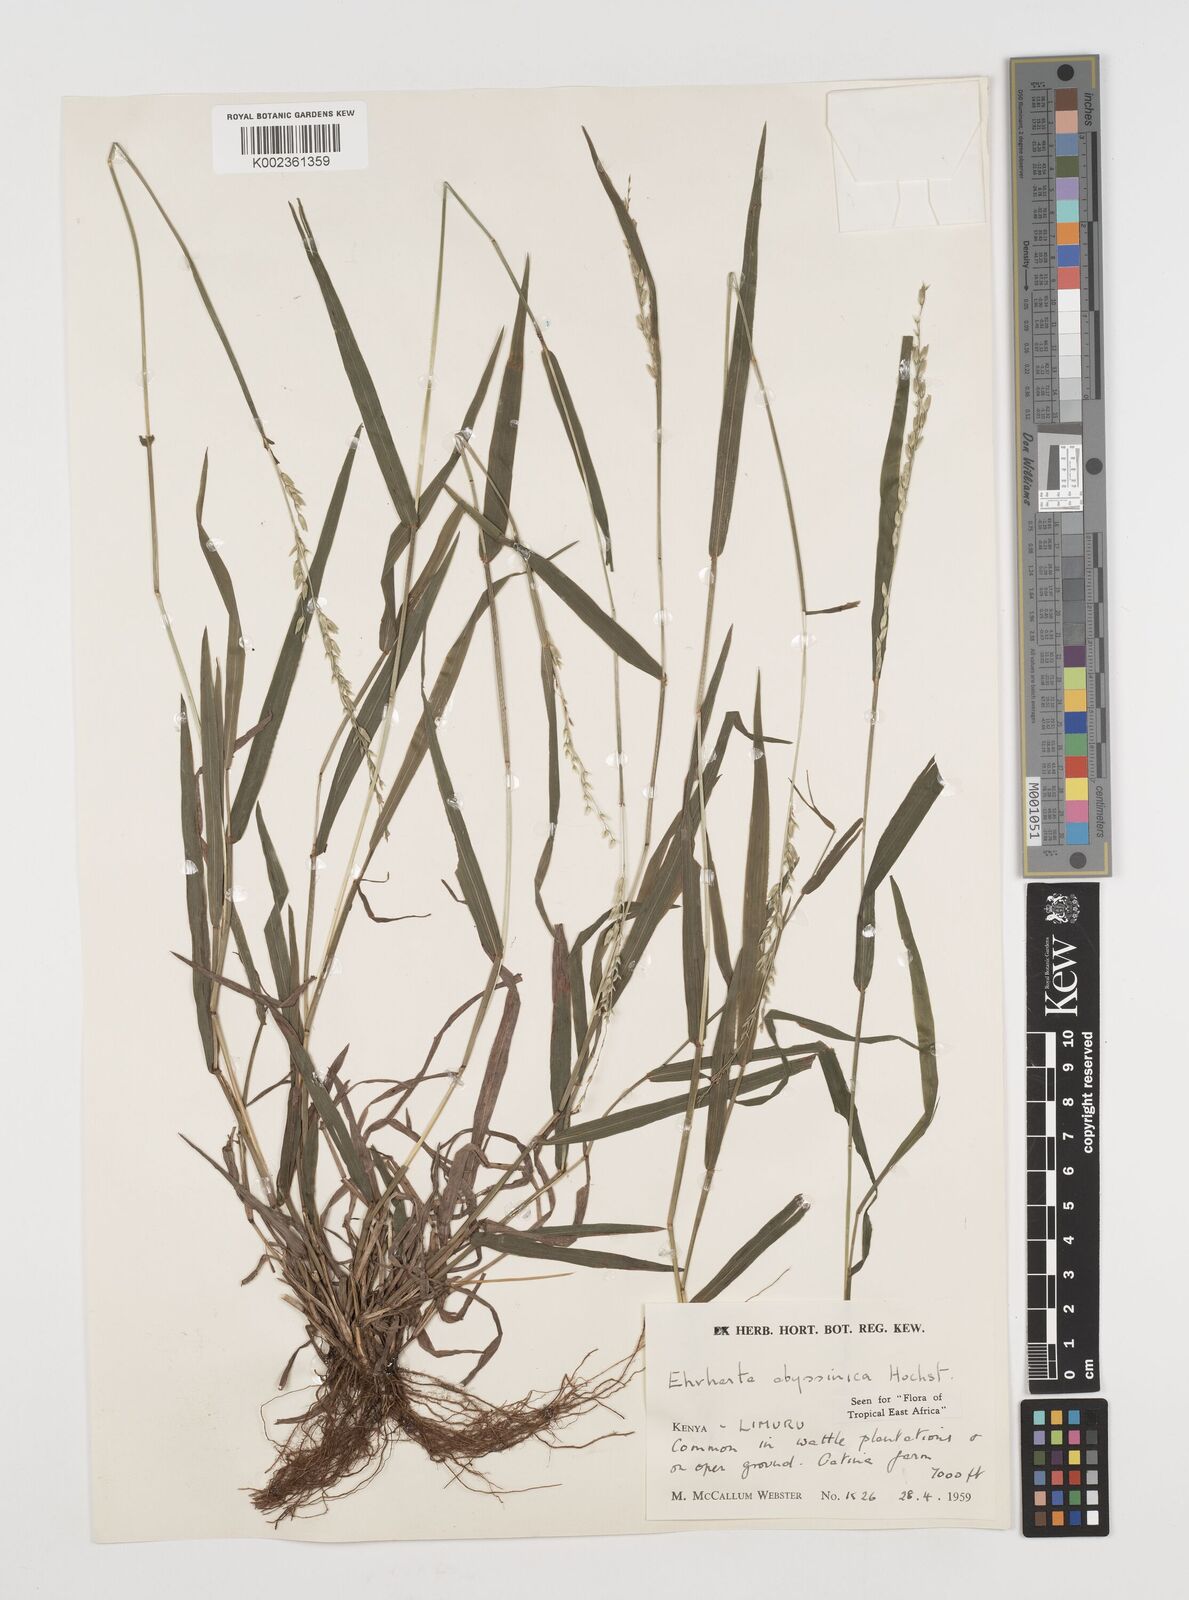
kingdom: Plantae
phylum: Tracheophyta
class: Liliopsida
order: Poales
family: Poaceae
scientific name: Poaceae
